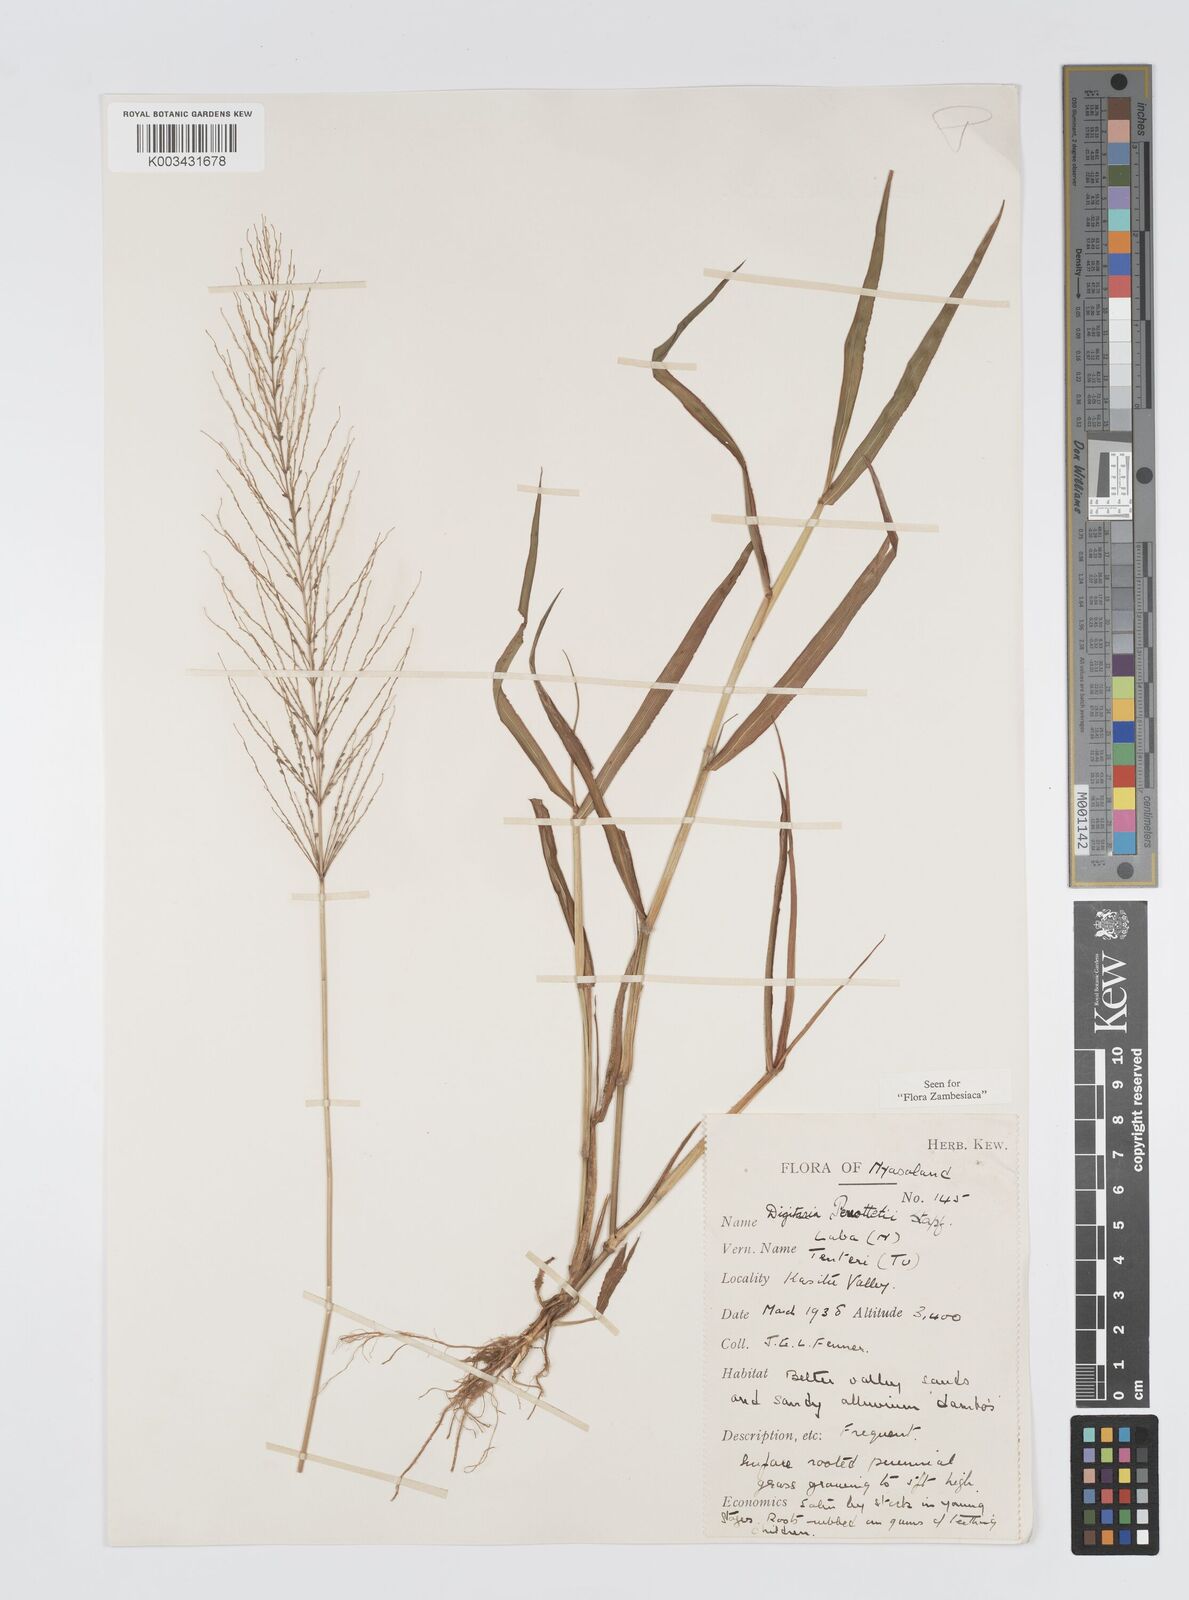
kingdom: Plantae
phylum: Tracheophyta
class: Liliopsida
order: Poales
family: Poaceae
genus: Digitaria
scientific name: Digitaria perrottetii
